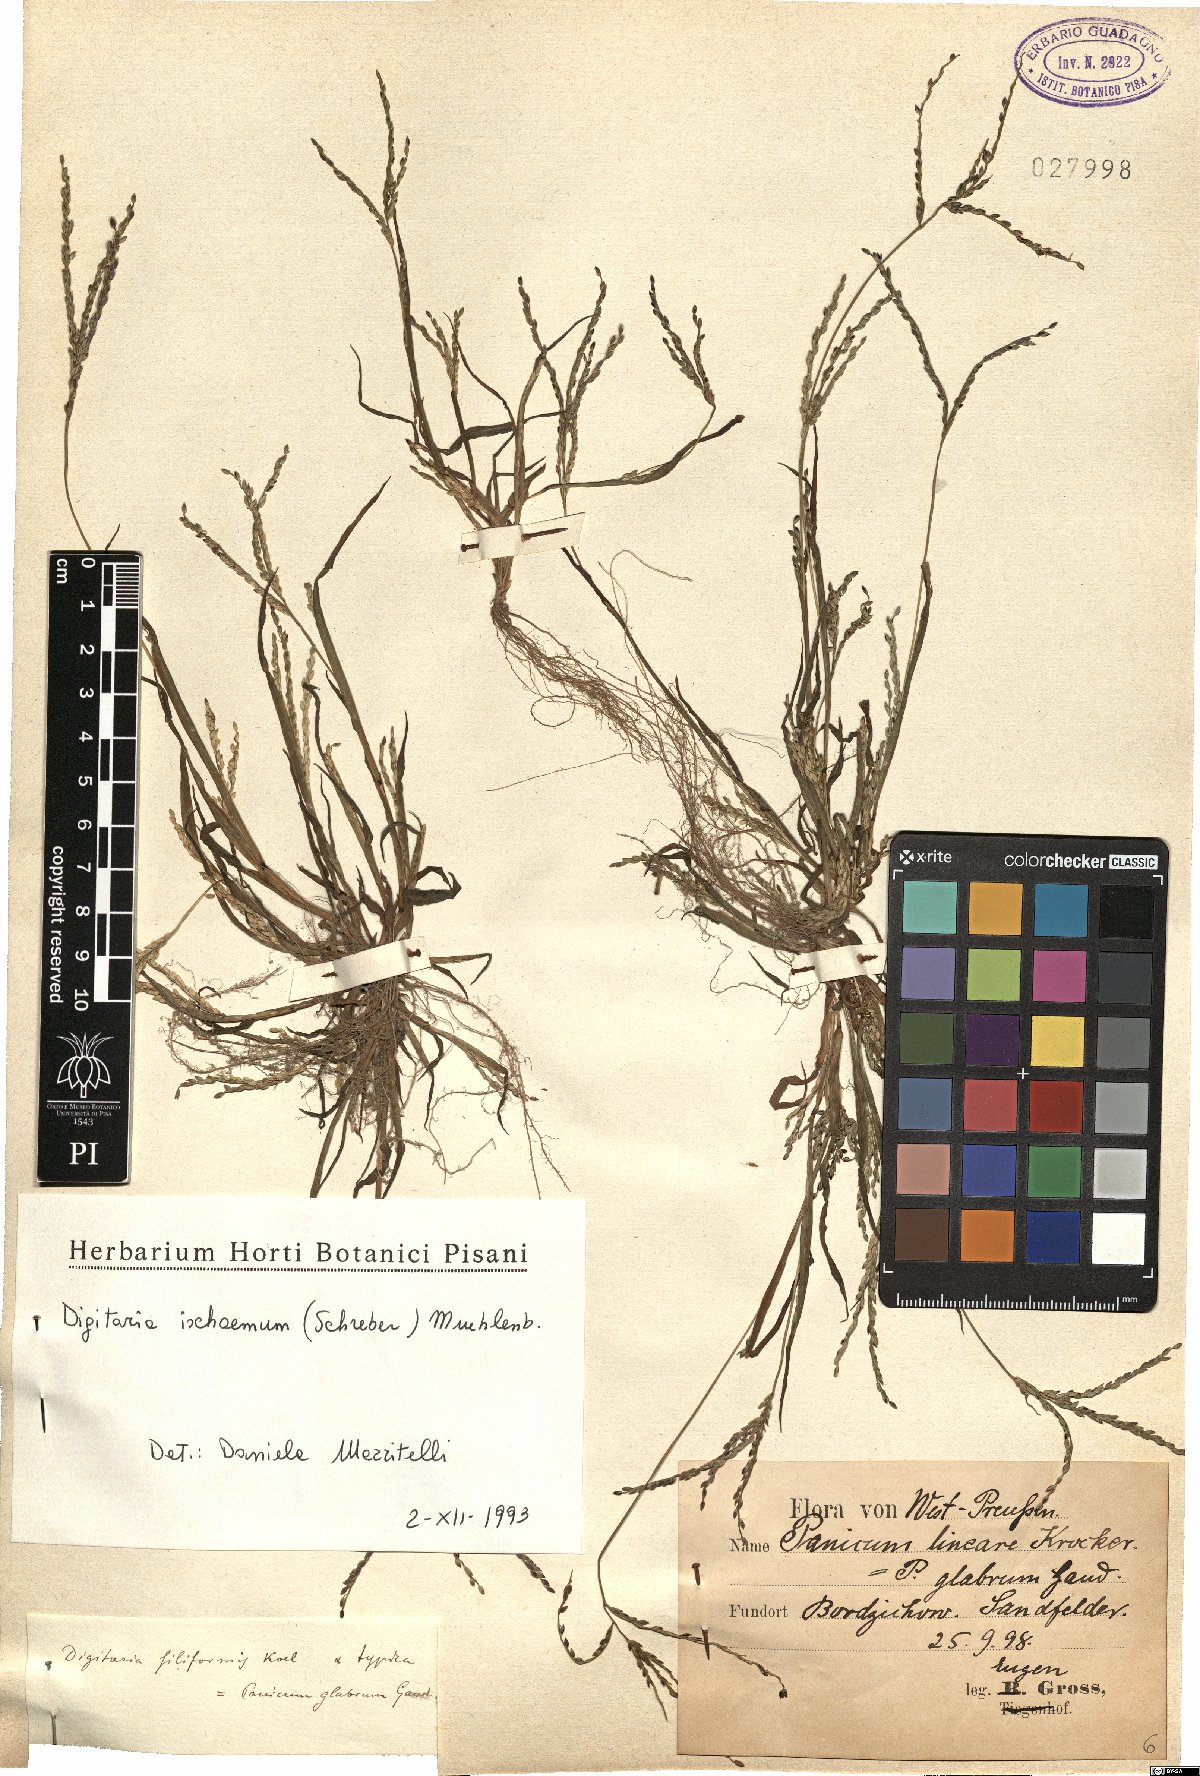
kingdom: Plantae
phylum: Tracheophyta
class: Liliopsida
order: Poales
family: Poaceae
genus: Digitaria
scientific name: Digitaria ischaemum
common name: Smooth crabgrass
